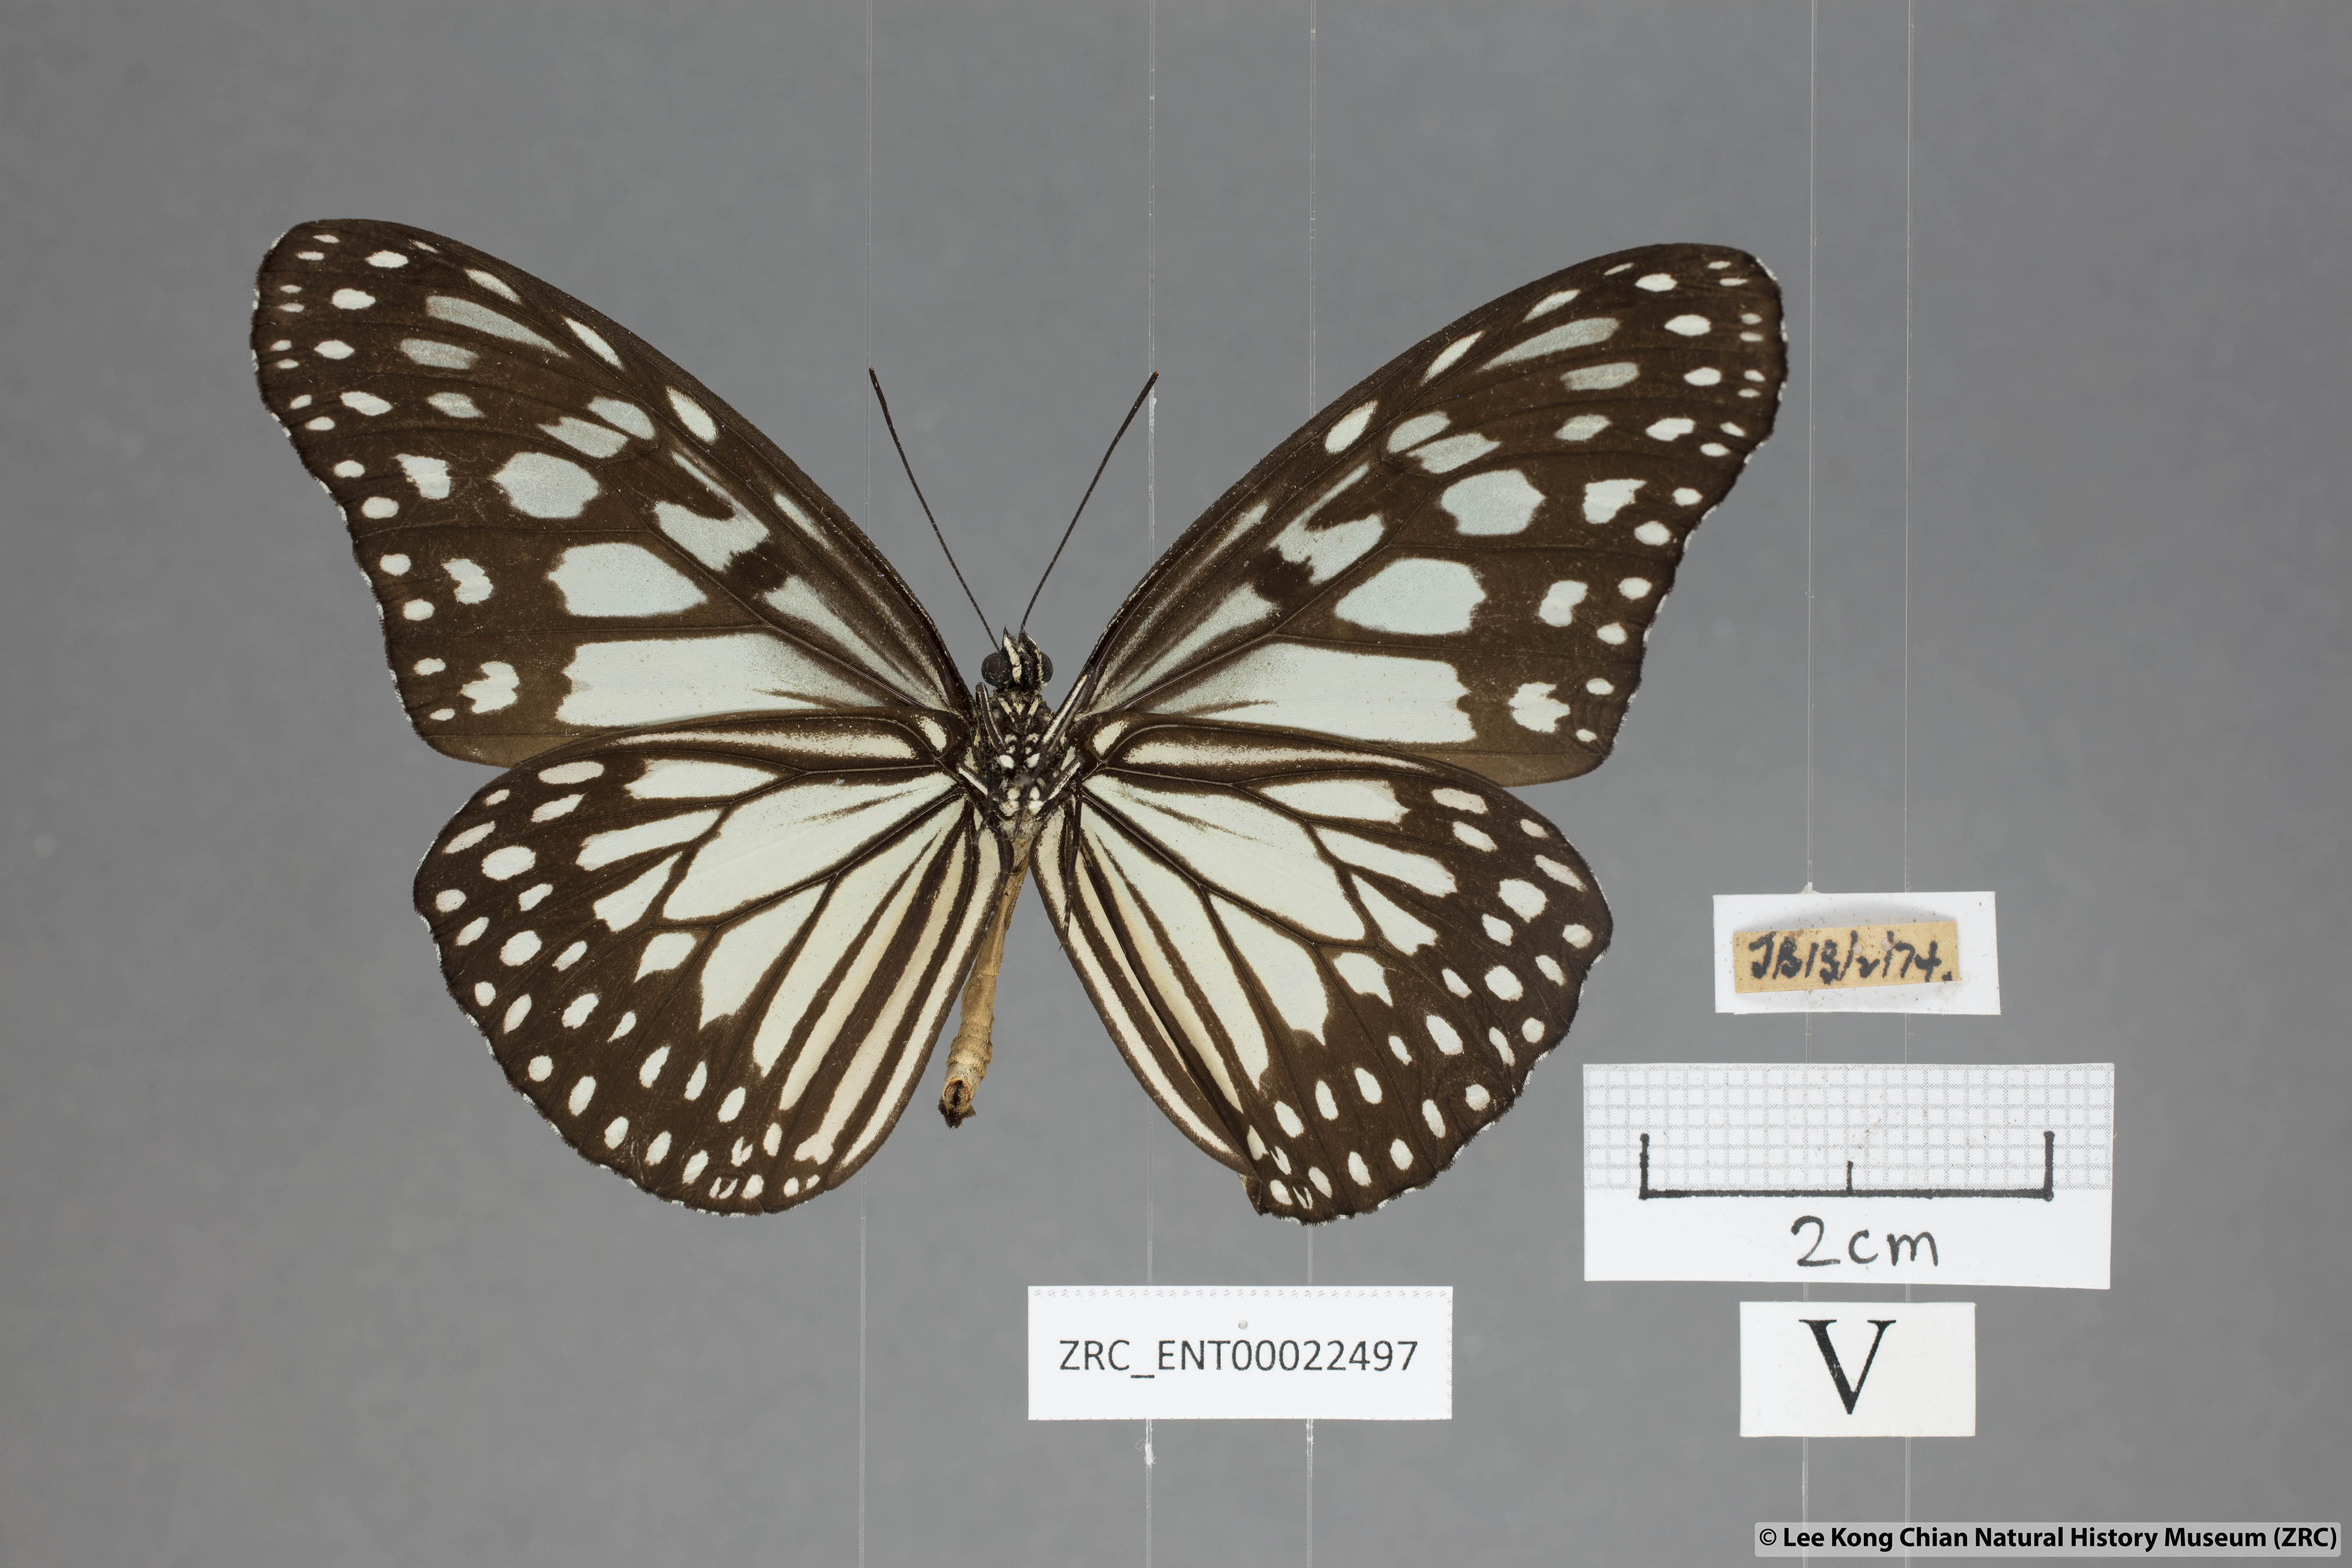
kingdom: Animalia
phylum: Arthropoda
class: Insecta
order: Lepidoptera
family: Nymphalidae
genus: Ideopsis
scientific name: Ideopsis juventa
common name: Grey glassy tiger
